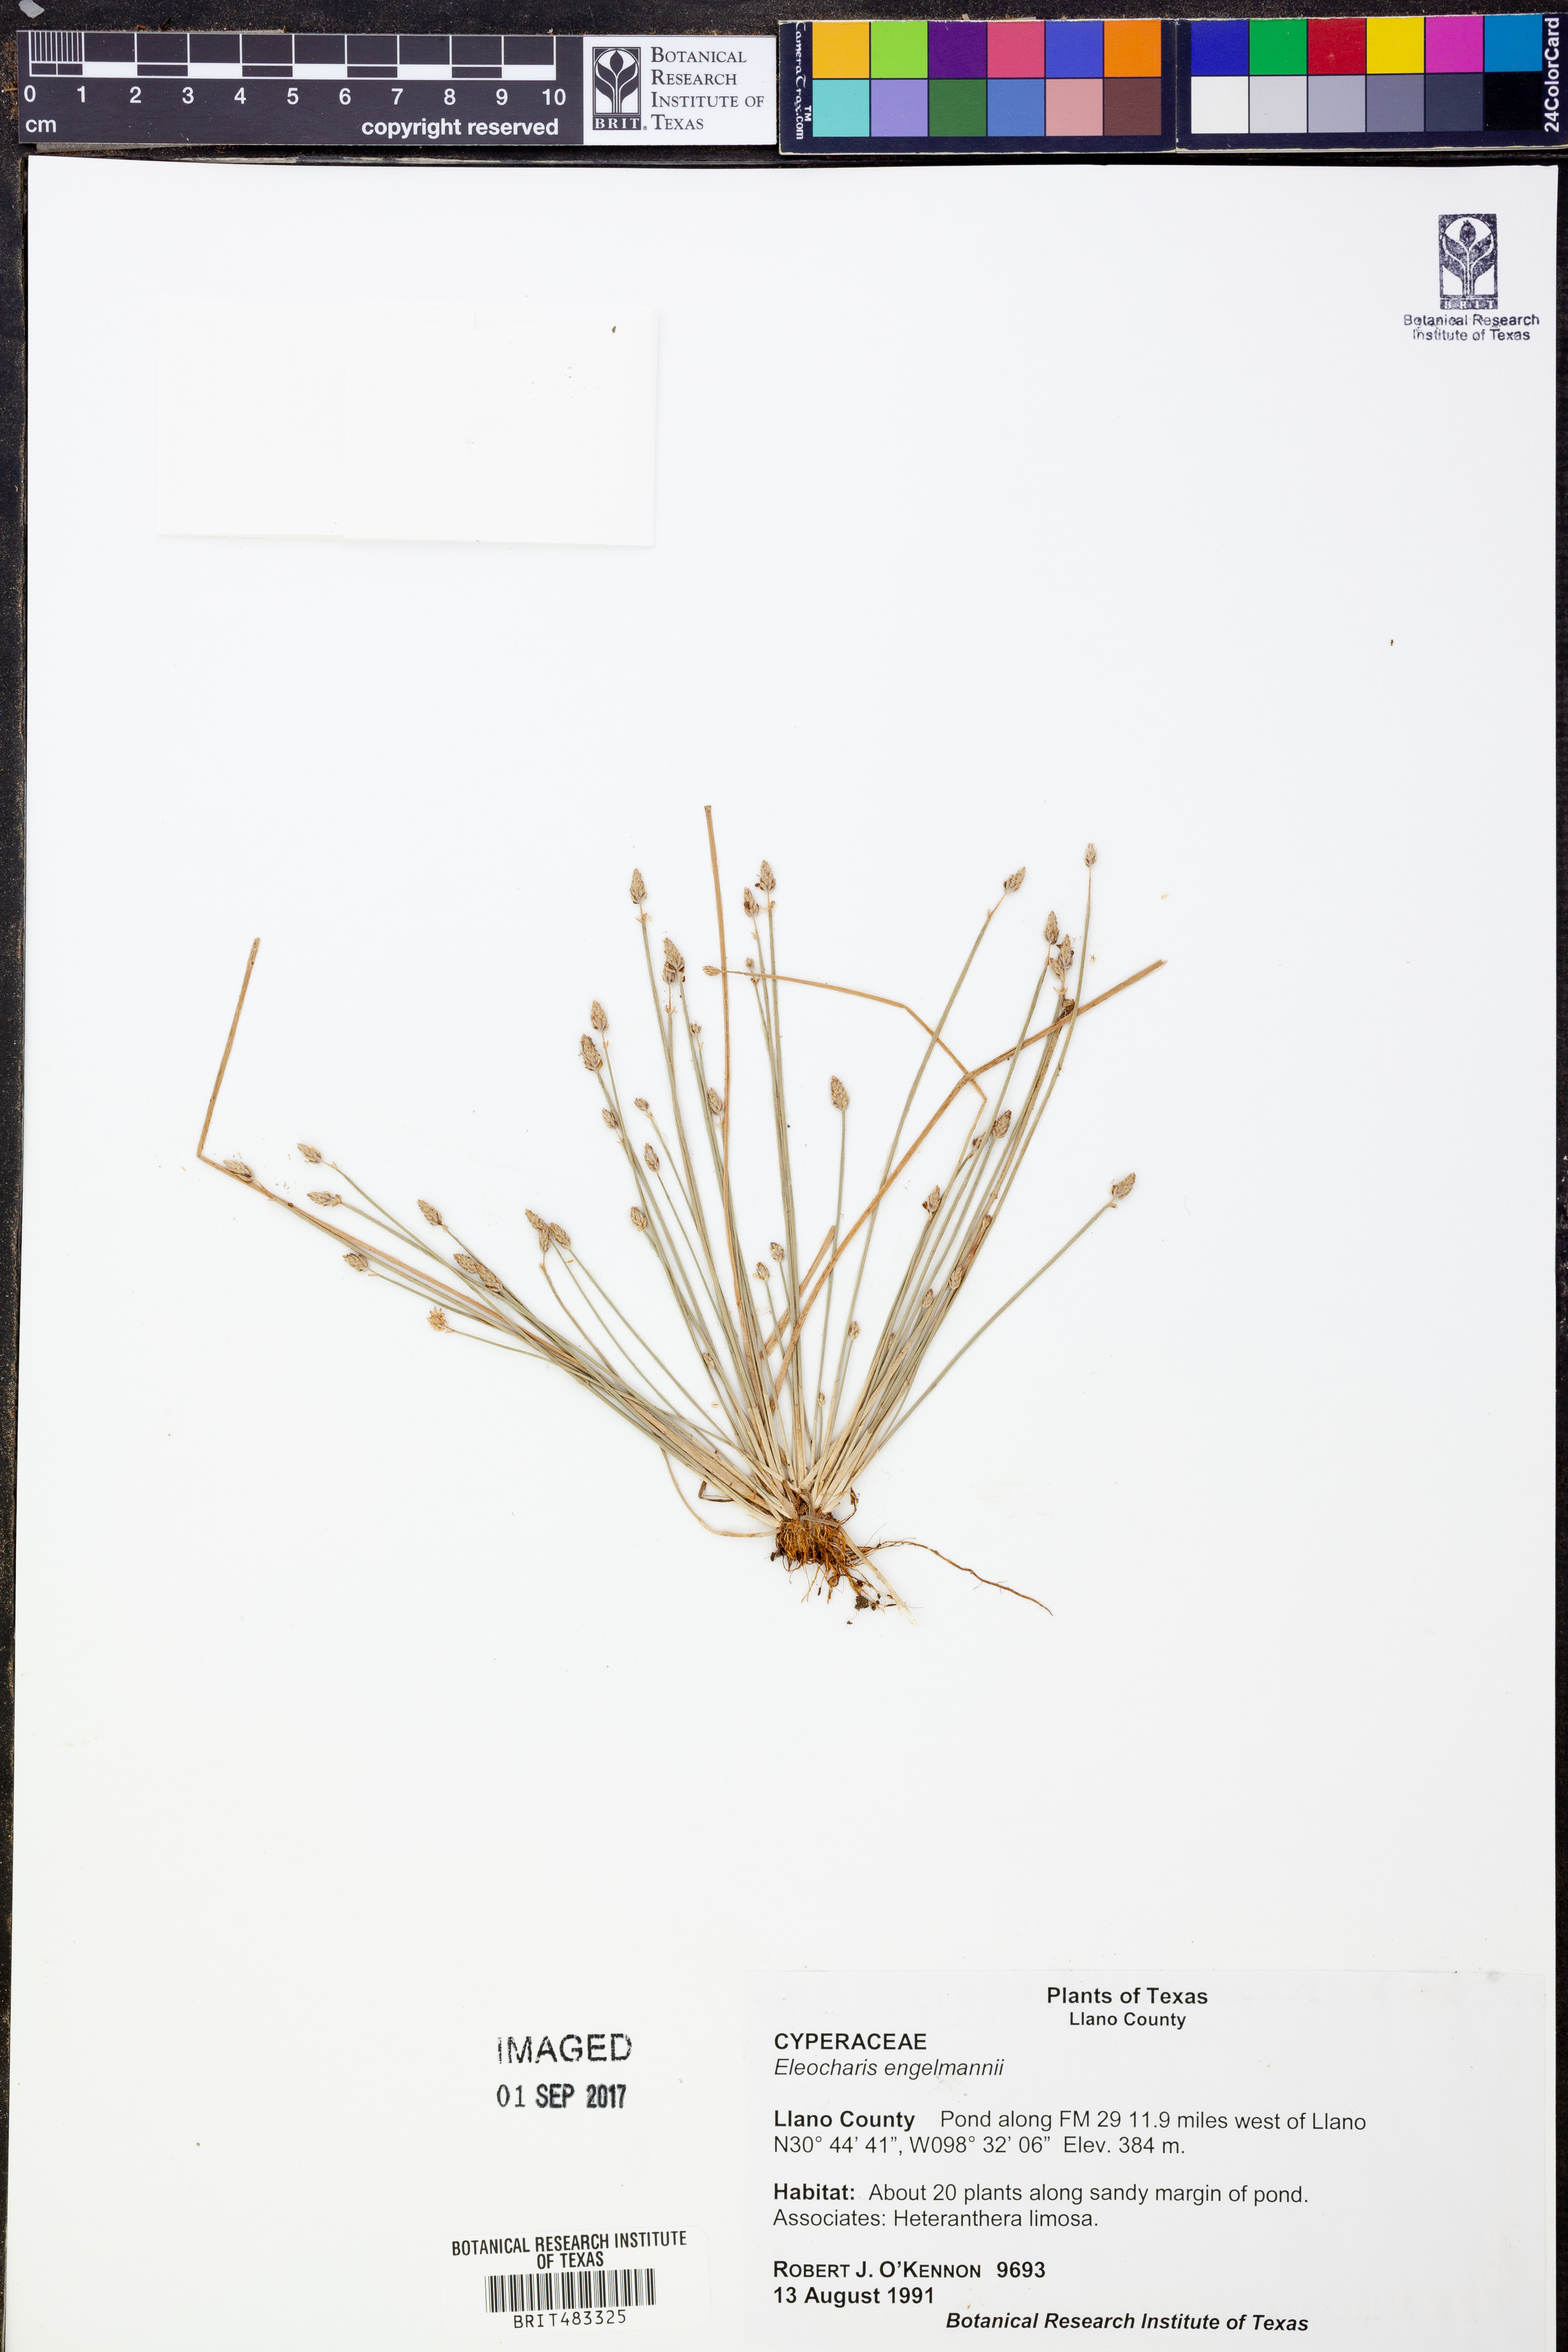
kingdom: Plantae
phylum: Tracheophyta
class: Liliopsida
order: Poales
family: Cyperaceae
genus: Eleocharis
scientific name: Eleocharis engelmannii
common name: Engelmann's spikerush
